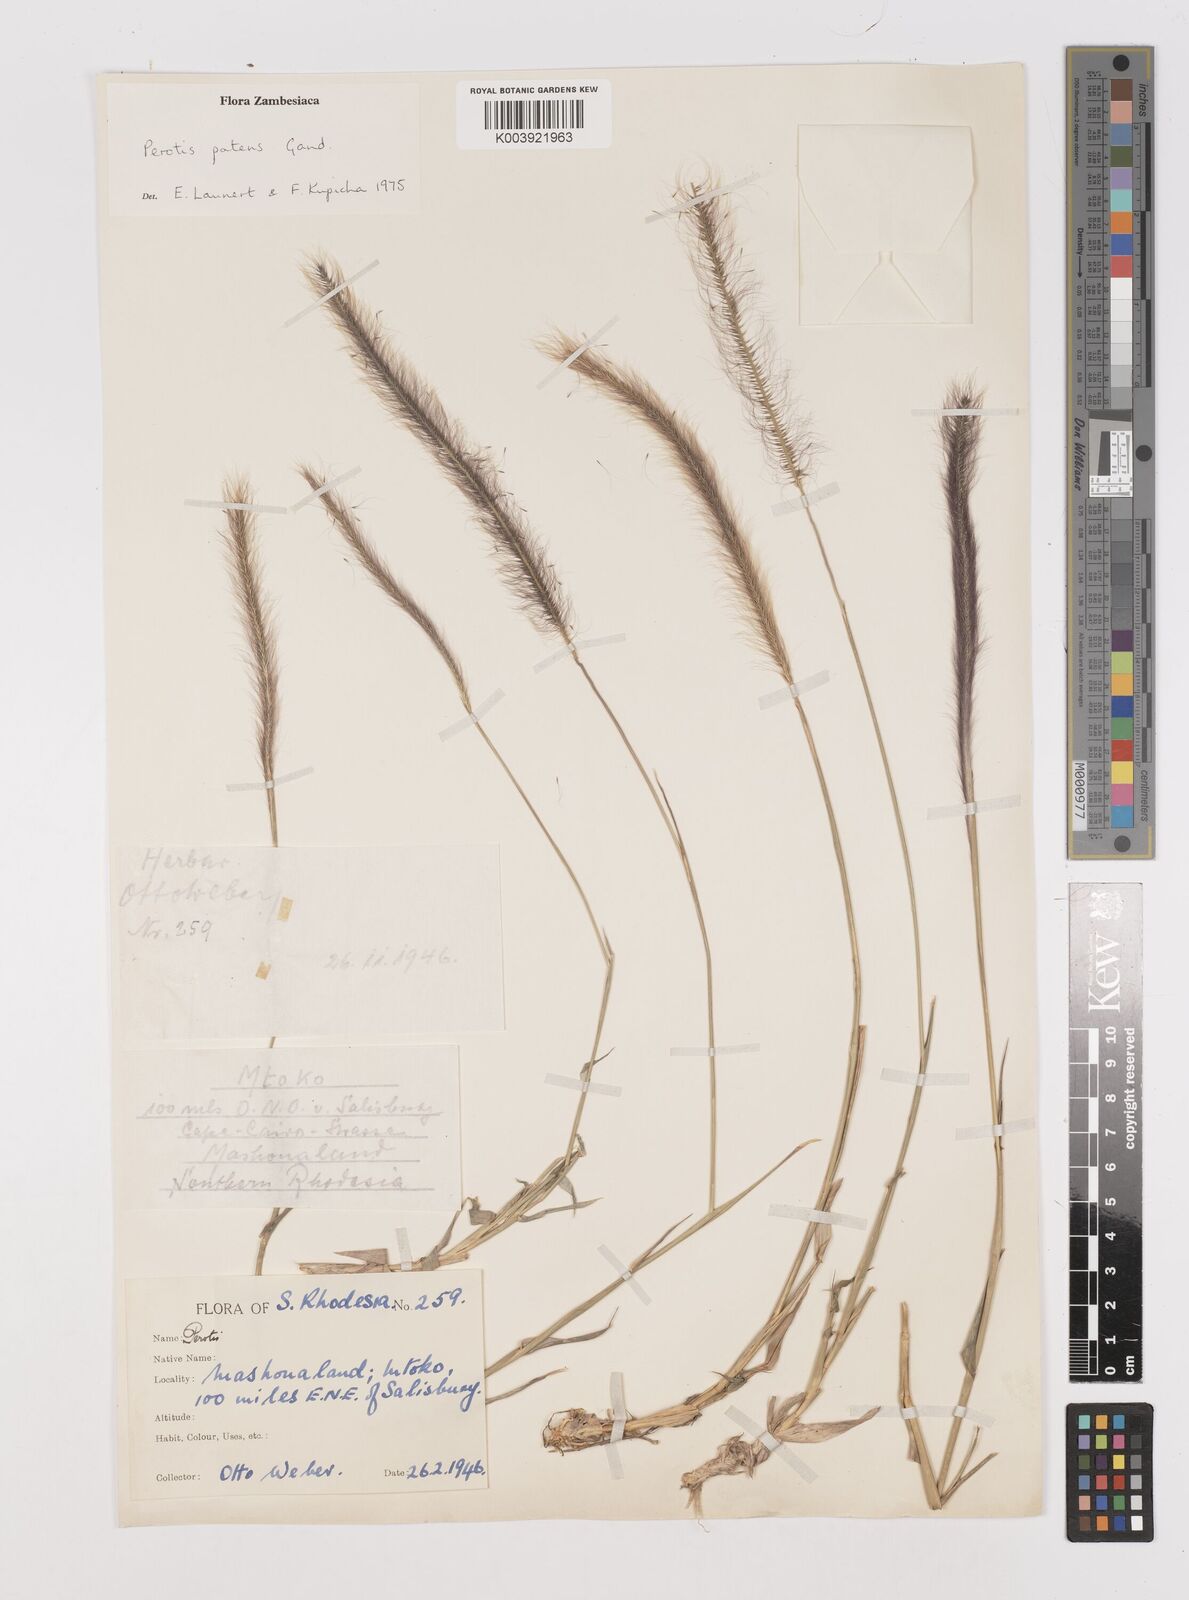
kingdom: Plantae
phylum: Tracheophyta
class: Liliopsida
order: Poales
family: Poaceae
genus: Perotis
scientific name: Perotis patens
